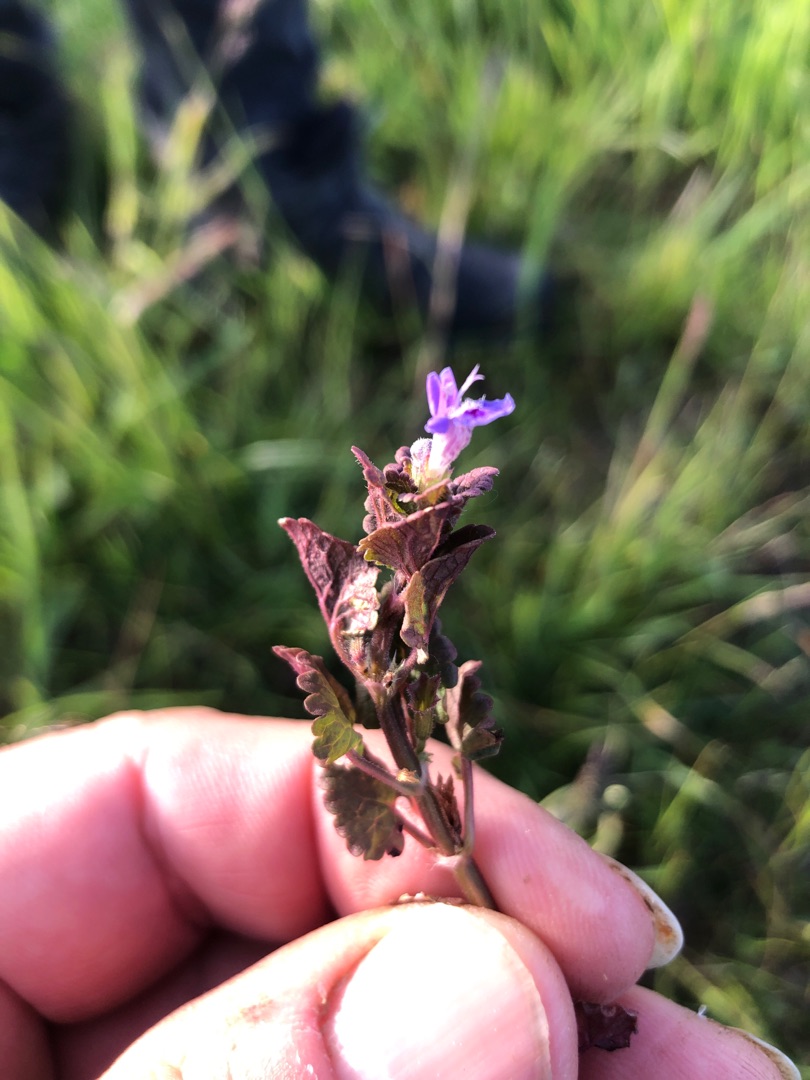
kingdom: Plantae
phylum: Tracheophyta
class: Magnoliopsida
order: Lamiales
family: Lamiaceae
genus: Glechoma
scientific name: Glechoma hederacea
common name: Korsknap
